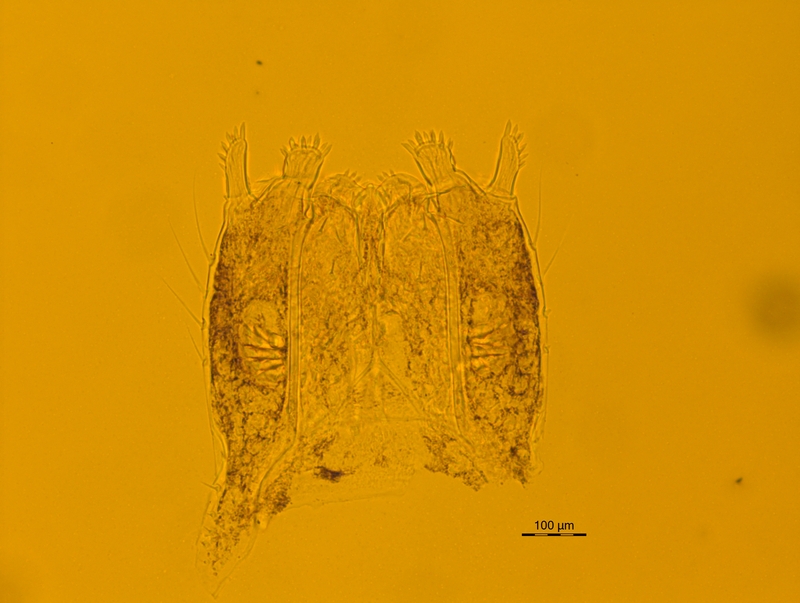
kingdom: Animalia
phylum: Arthropoda
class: Diplopoda
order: Chordeumatida
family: Craspedosomatidae
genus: Ochogona
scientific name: Ochogona euganeorum
